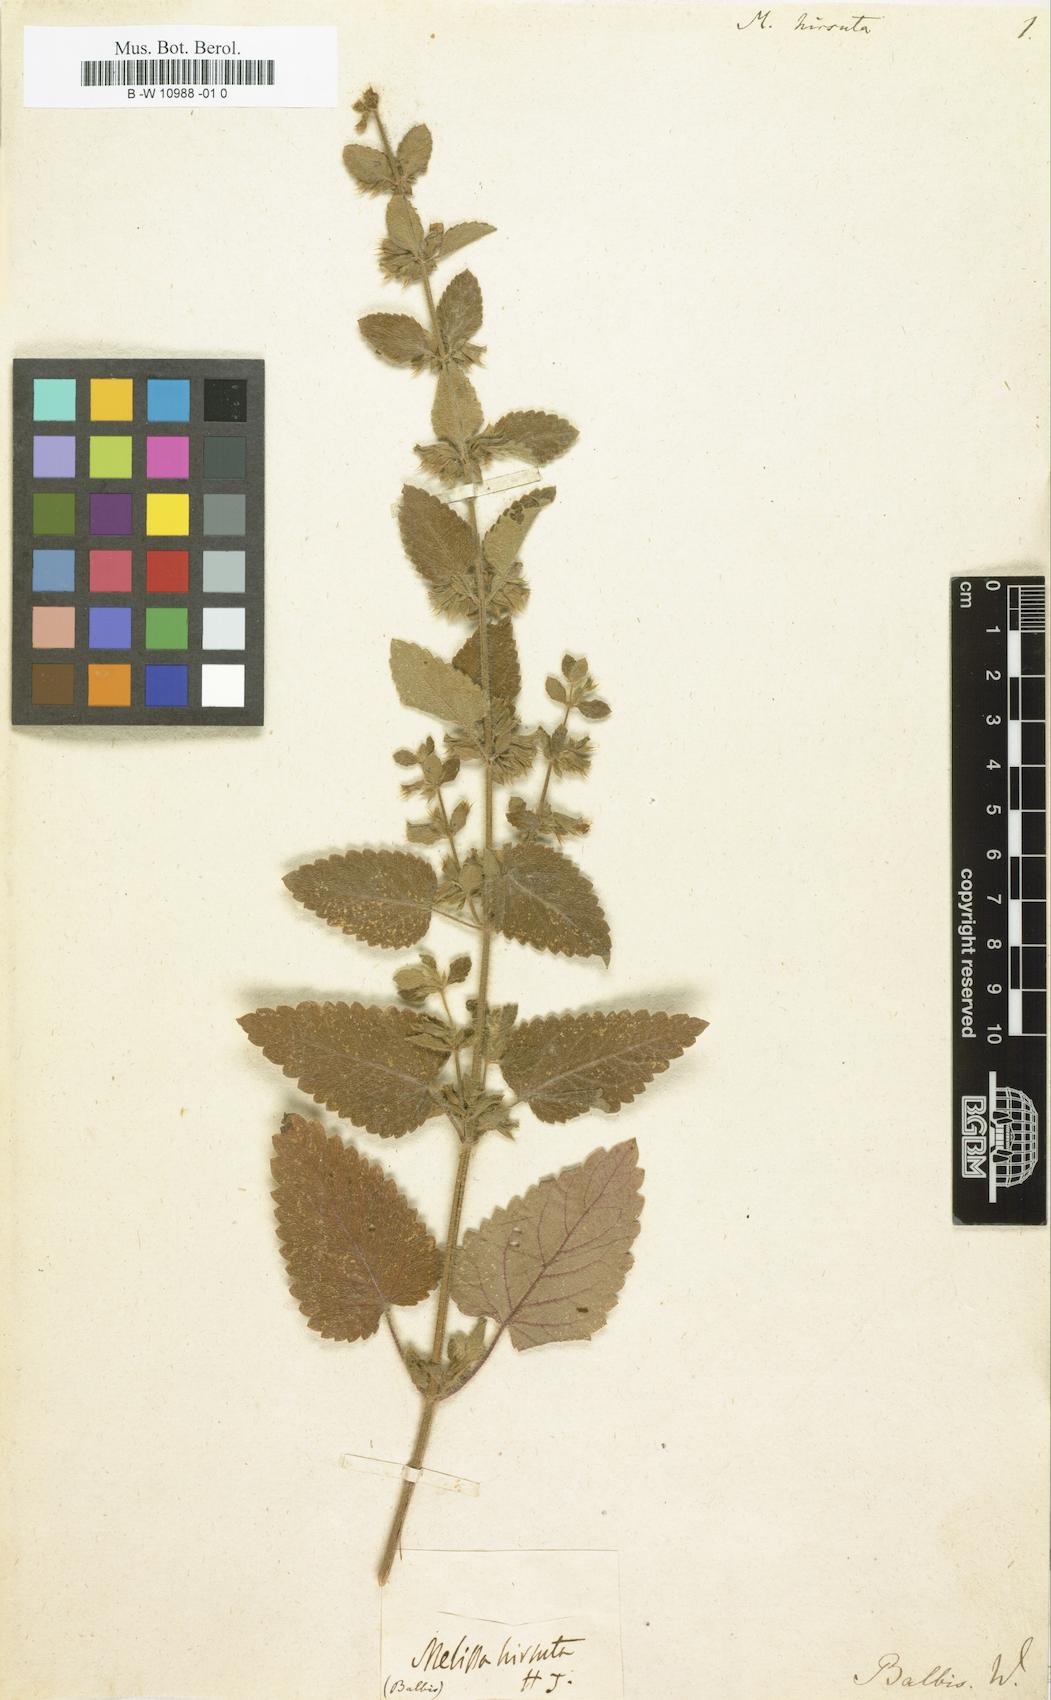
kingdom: Plantae
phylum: Tracheophyta
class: Magnoliopsida
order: Lamiales
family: Lamiaceae
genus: Melissa
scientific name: Melissa
